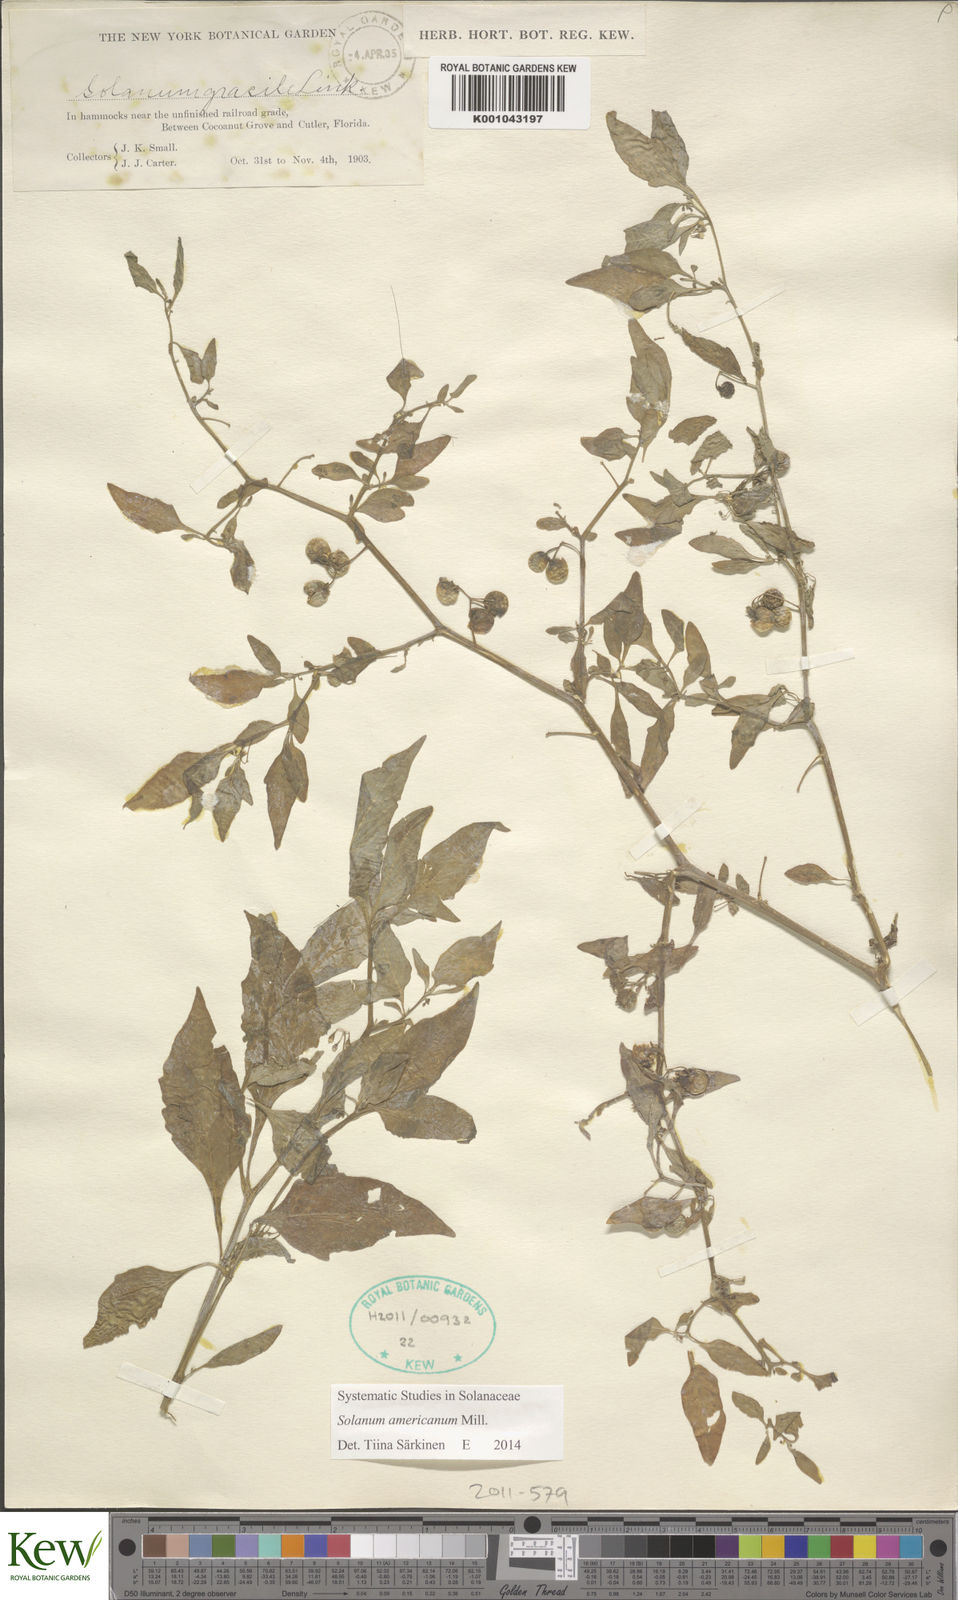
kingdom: Plantae
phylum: Tracheophyta
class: Magnoliopsida
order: Solanales
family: Solanaceae
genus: Solanum
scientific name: Solanum americanum
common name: American black nightshade
